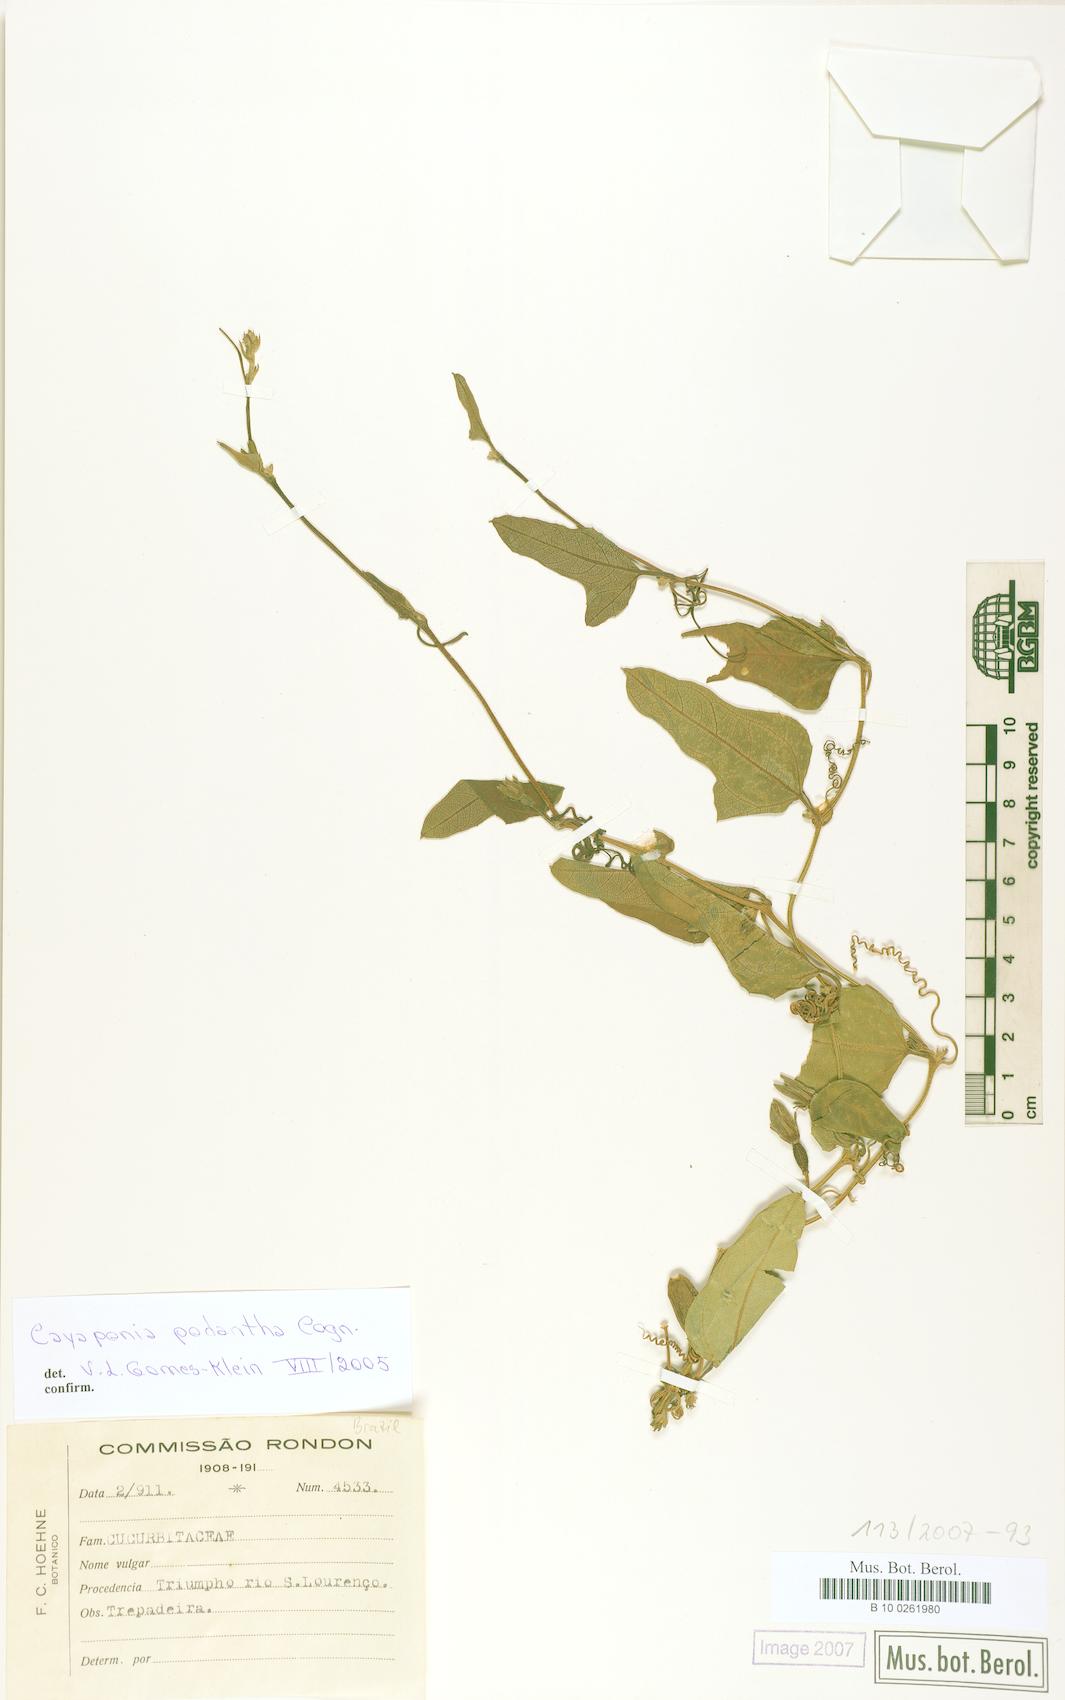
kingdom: Plantae
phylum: Tracheophyta
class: Magnoliopsida
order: Cucurbitales
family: Cucurbitaceae
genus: Cayaponia
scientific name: Cayaponia podantha
